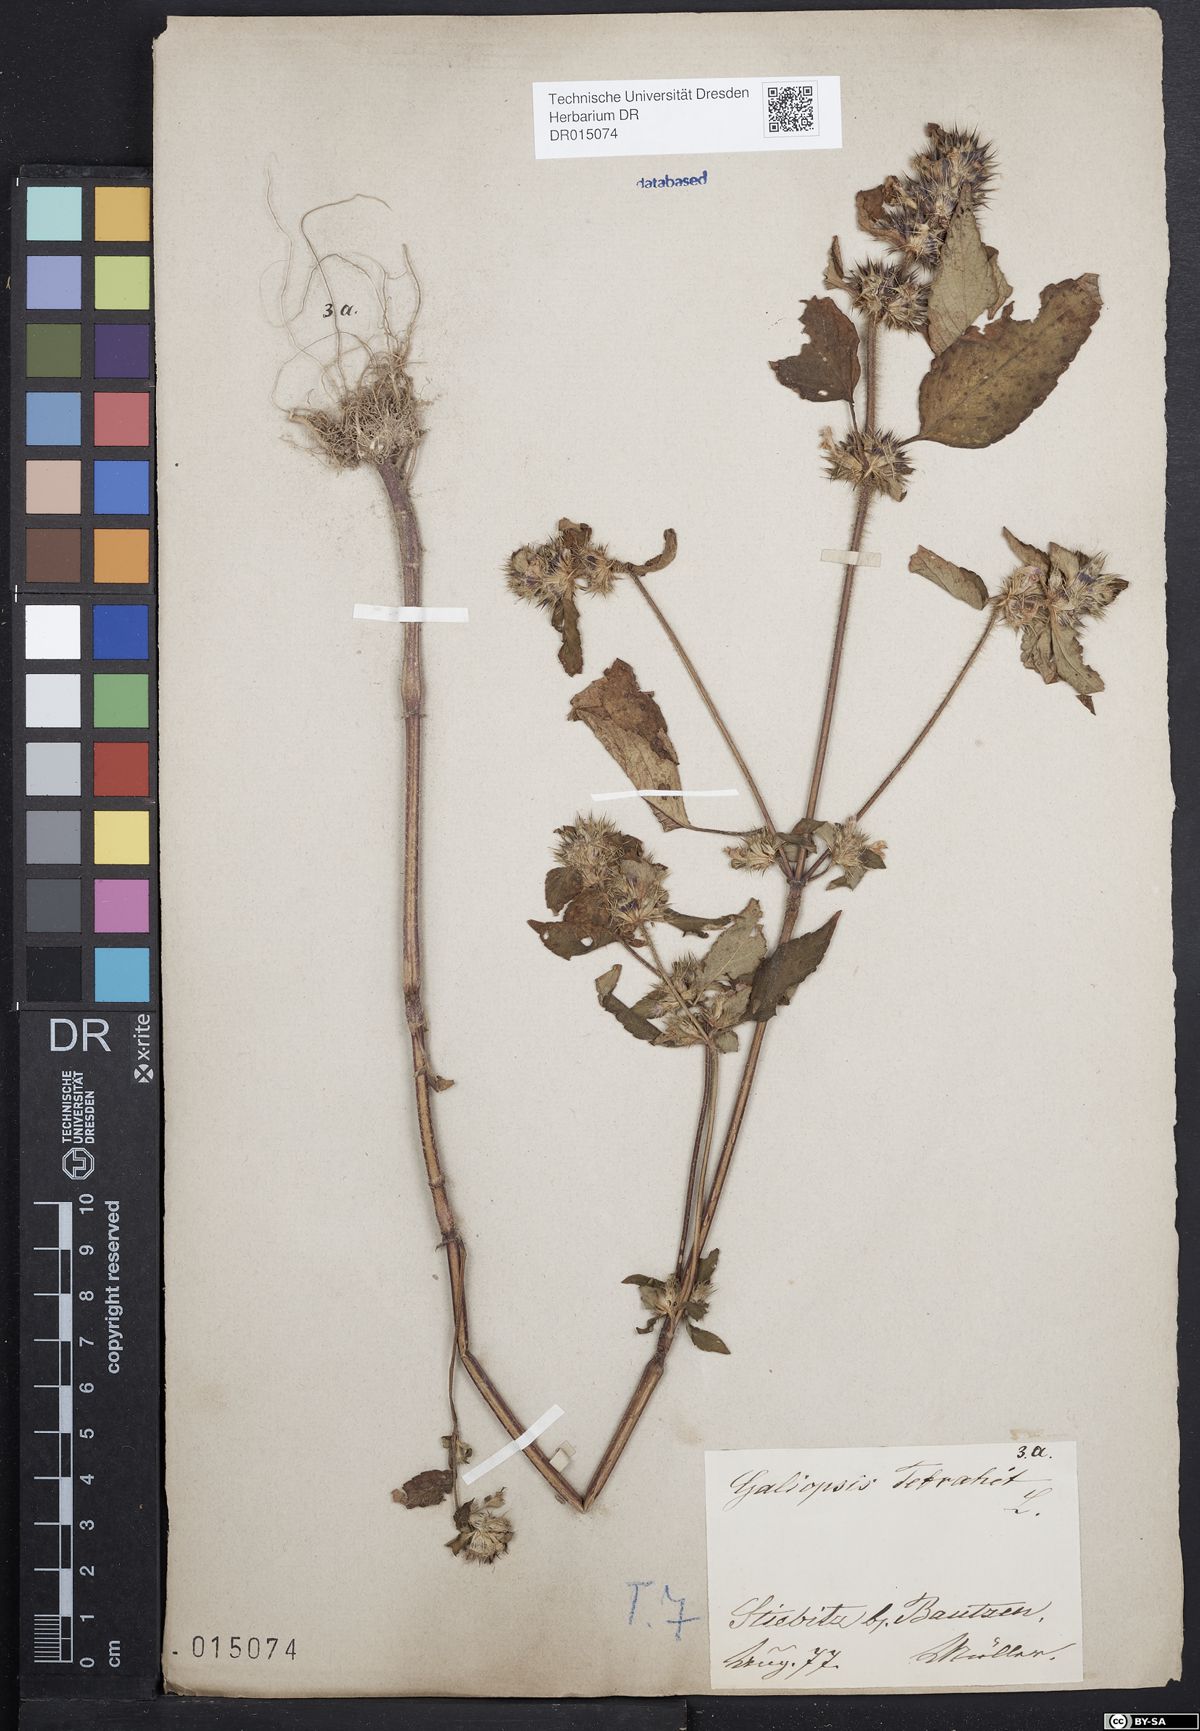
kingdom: Plantae
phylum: Tracheophyta
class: Magnoliopsida
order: Lamiales
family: Lamiaceae
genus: Galeopsis
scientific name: Galeopsis tetrahit
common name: Common hemp-nettle
